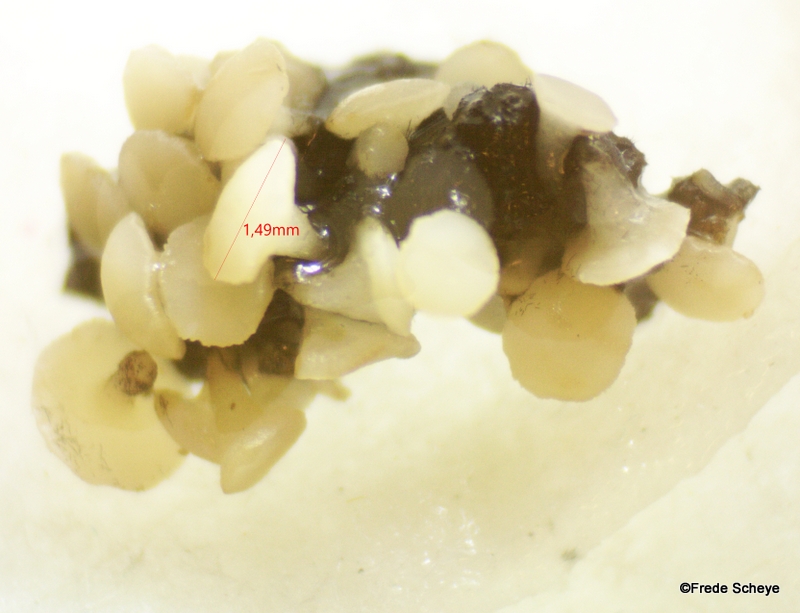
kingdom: Fungi
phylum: Ascomycota
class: Leotiomycetes
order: Helotiales
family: Helotiaceae
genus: Bispora
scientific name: Bispora pallescens
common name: måtte-snitskive
